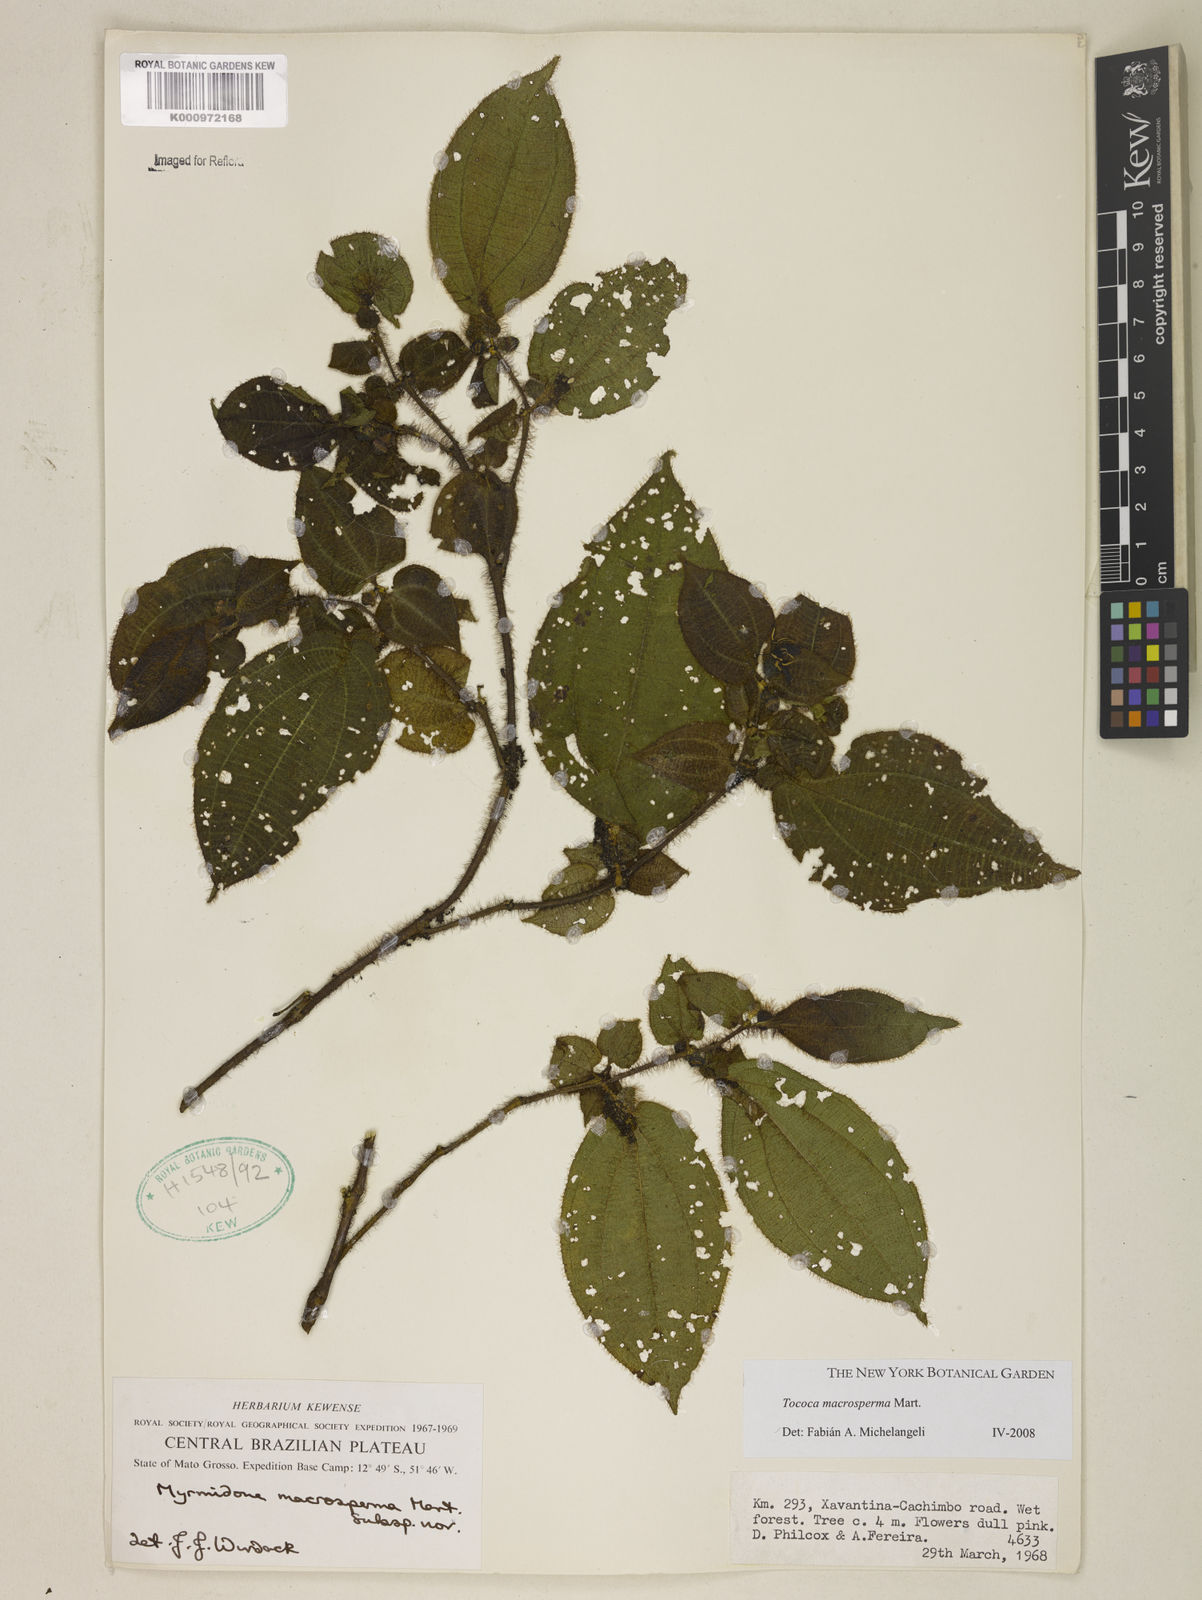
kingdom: Plantae
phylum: Tracheophyta
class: Magnoliopsida
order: Myrtales
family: Melastomataceae
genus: Miconia
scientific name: Miconia macrosperma
